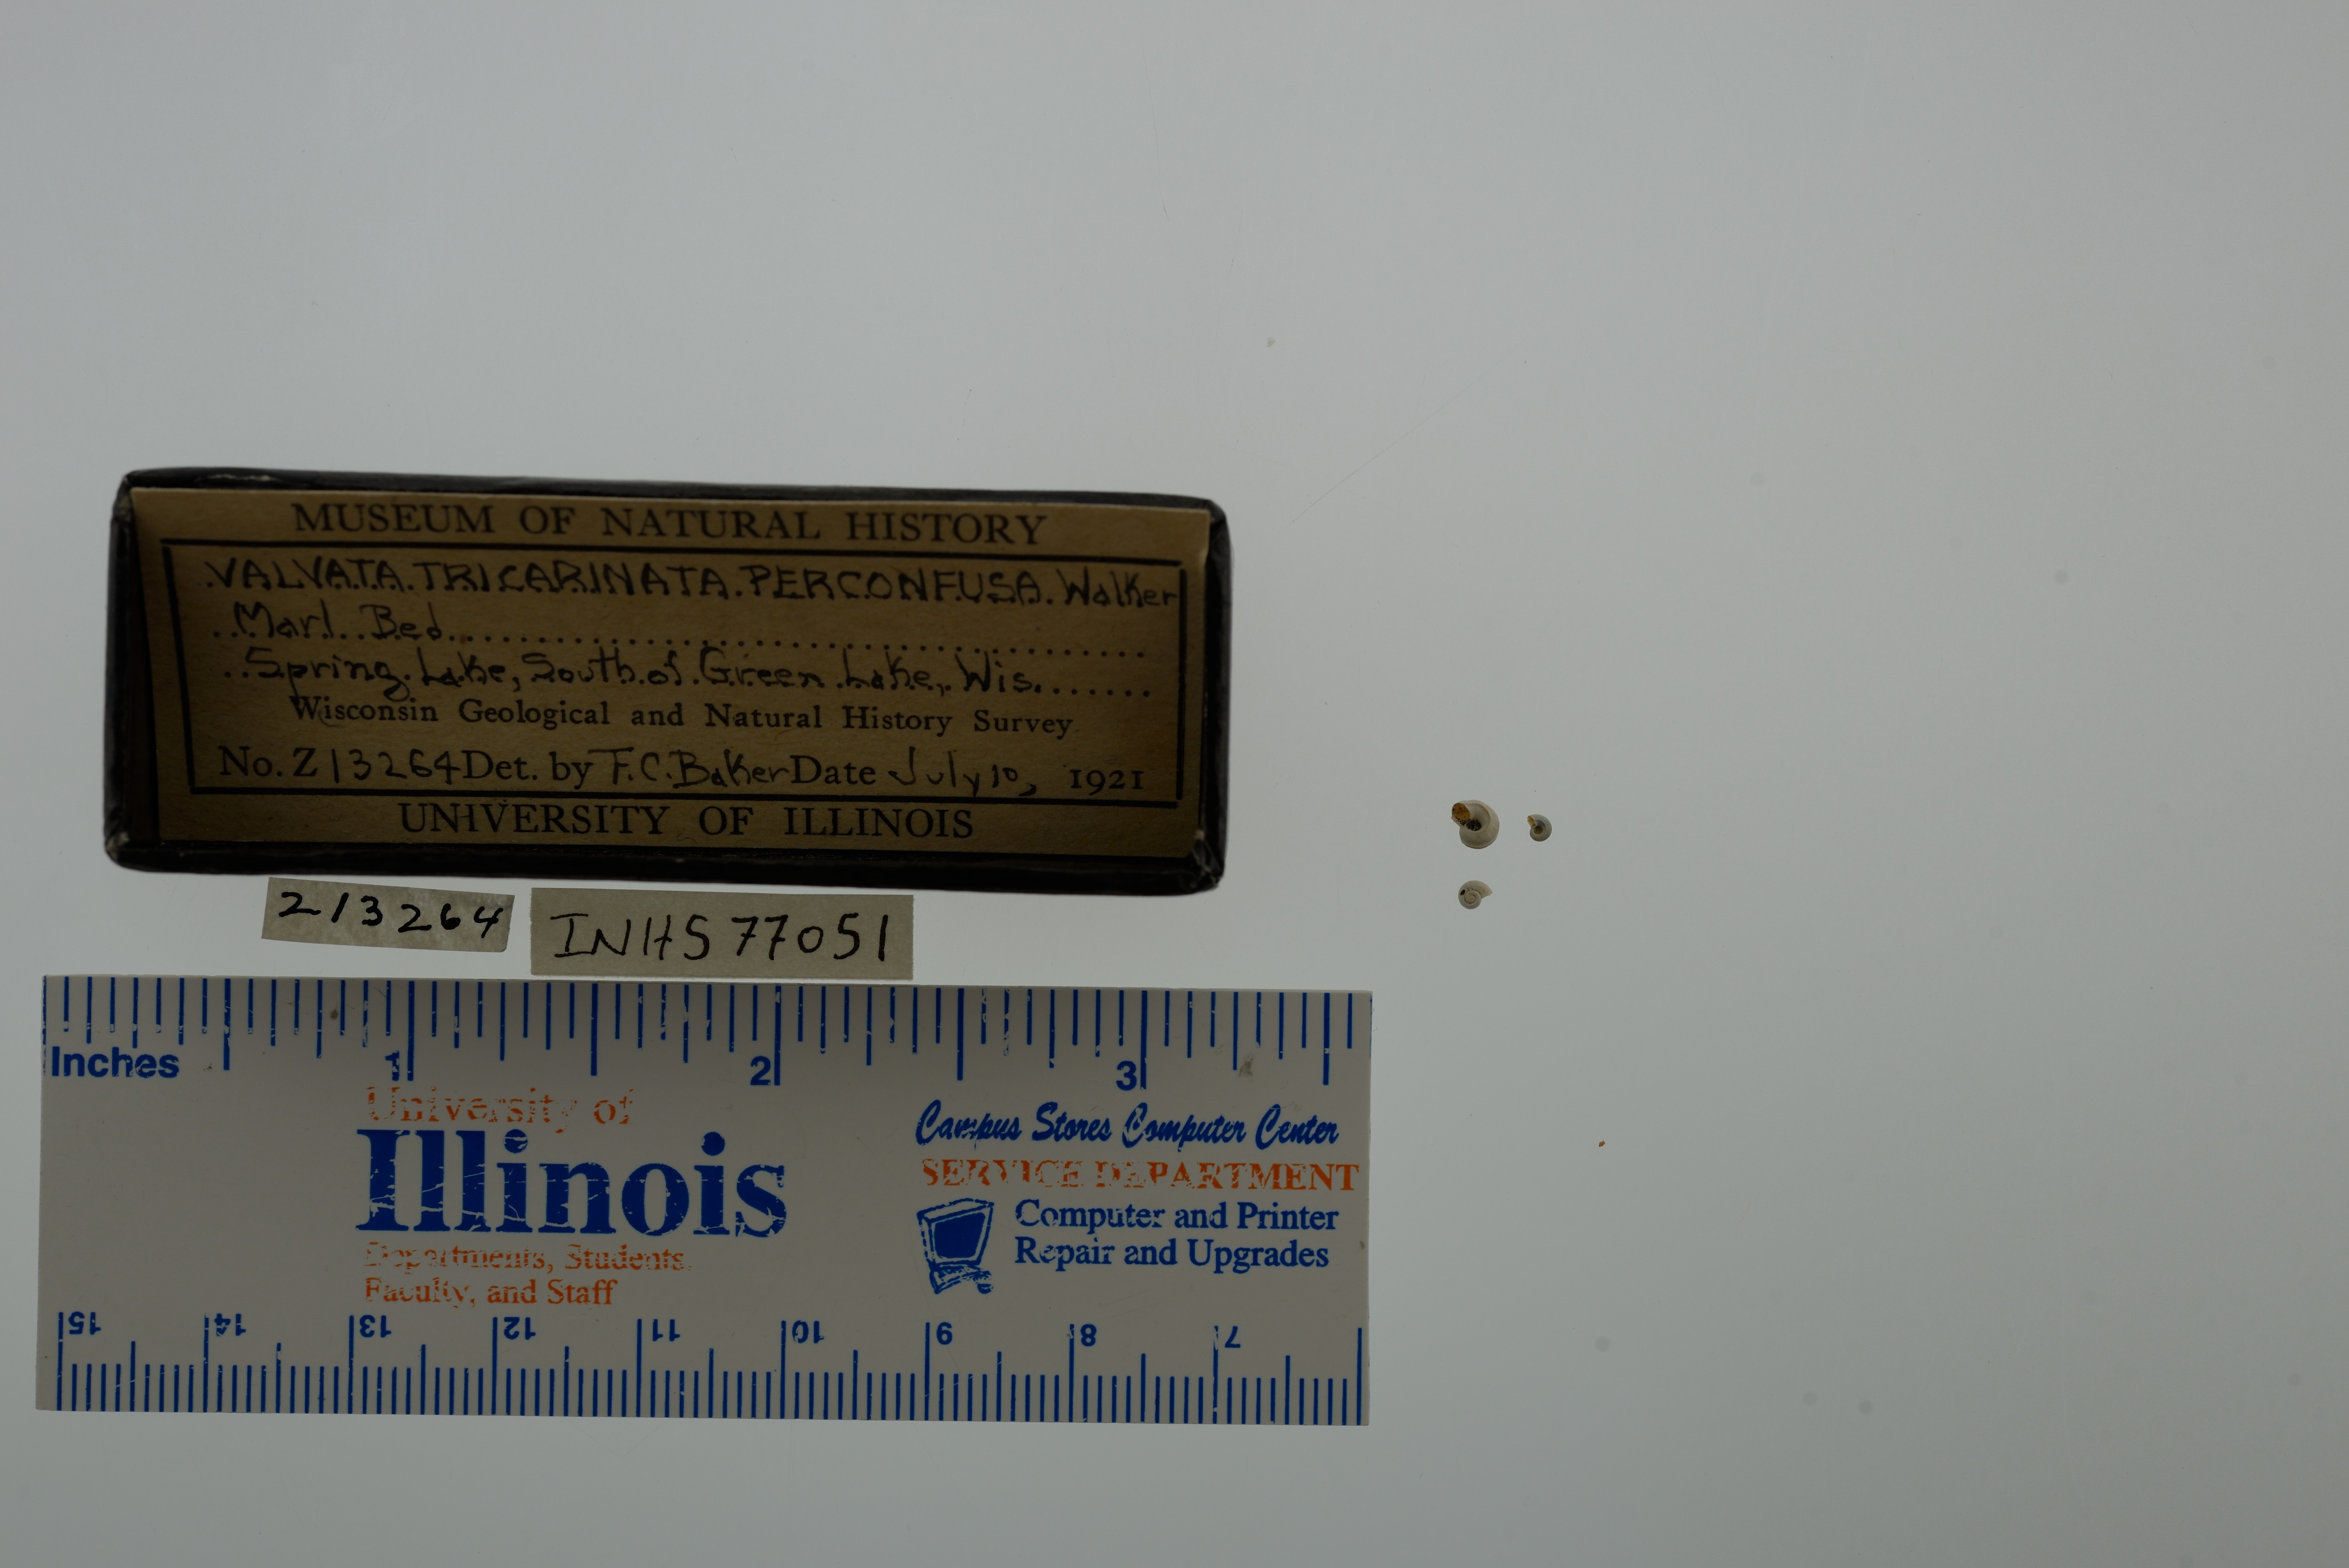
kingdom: Animalia
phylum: Mollusca
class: Gastropoda
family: Valvatidae
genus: Valvata
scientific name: Valvata tricarinata
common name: Three-ridge valvata
